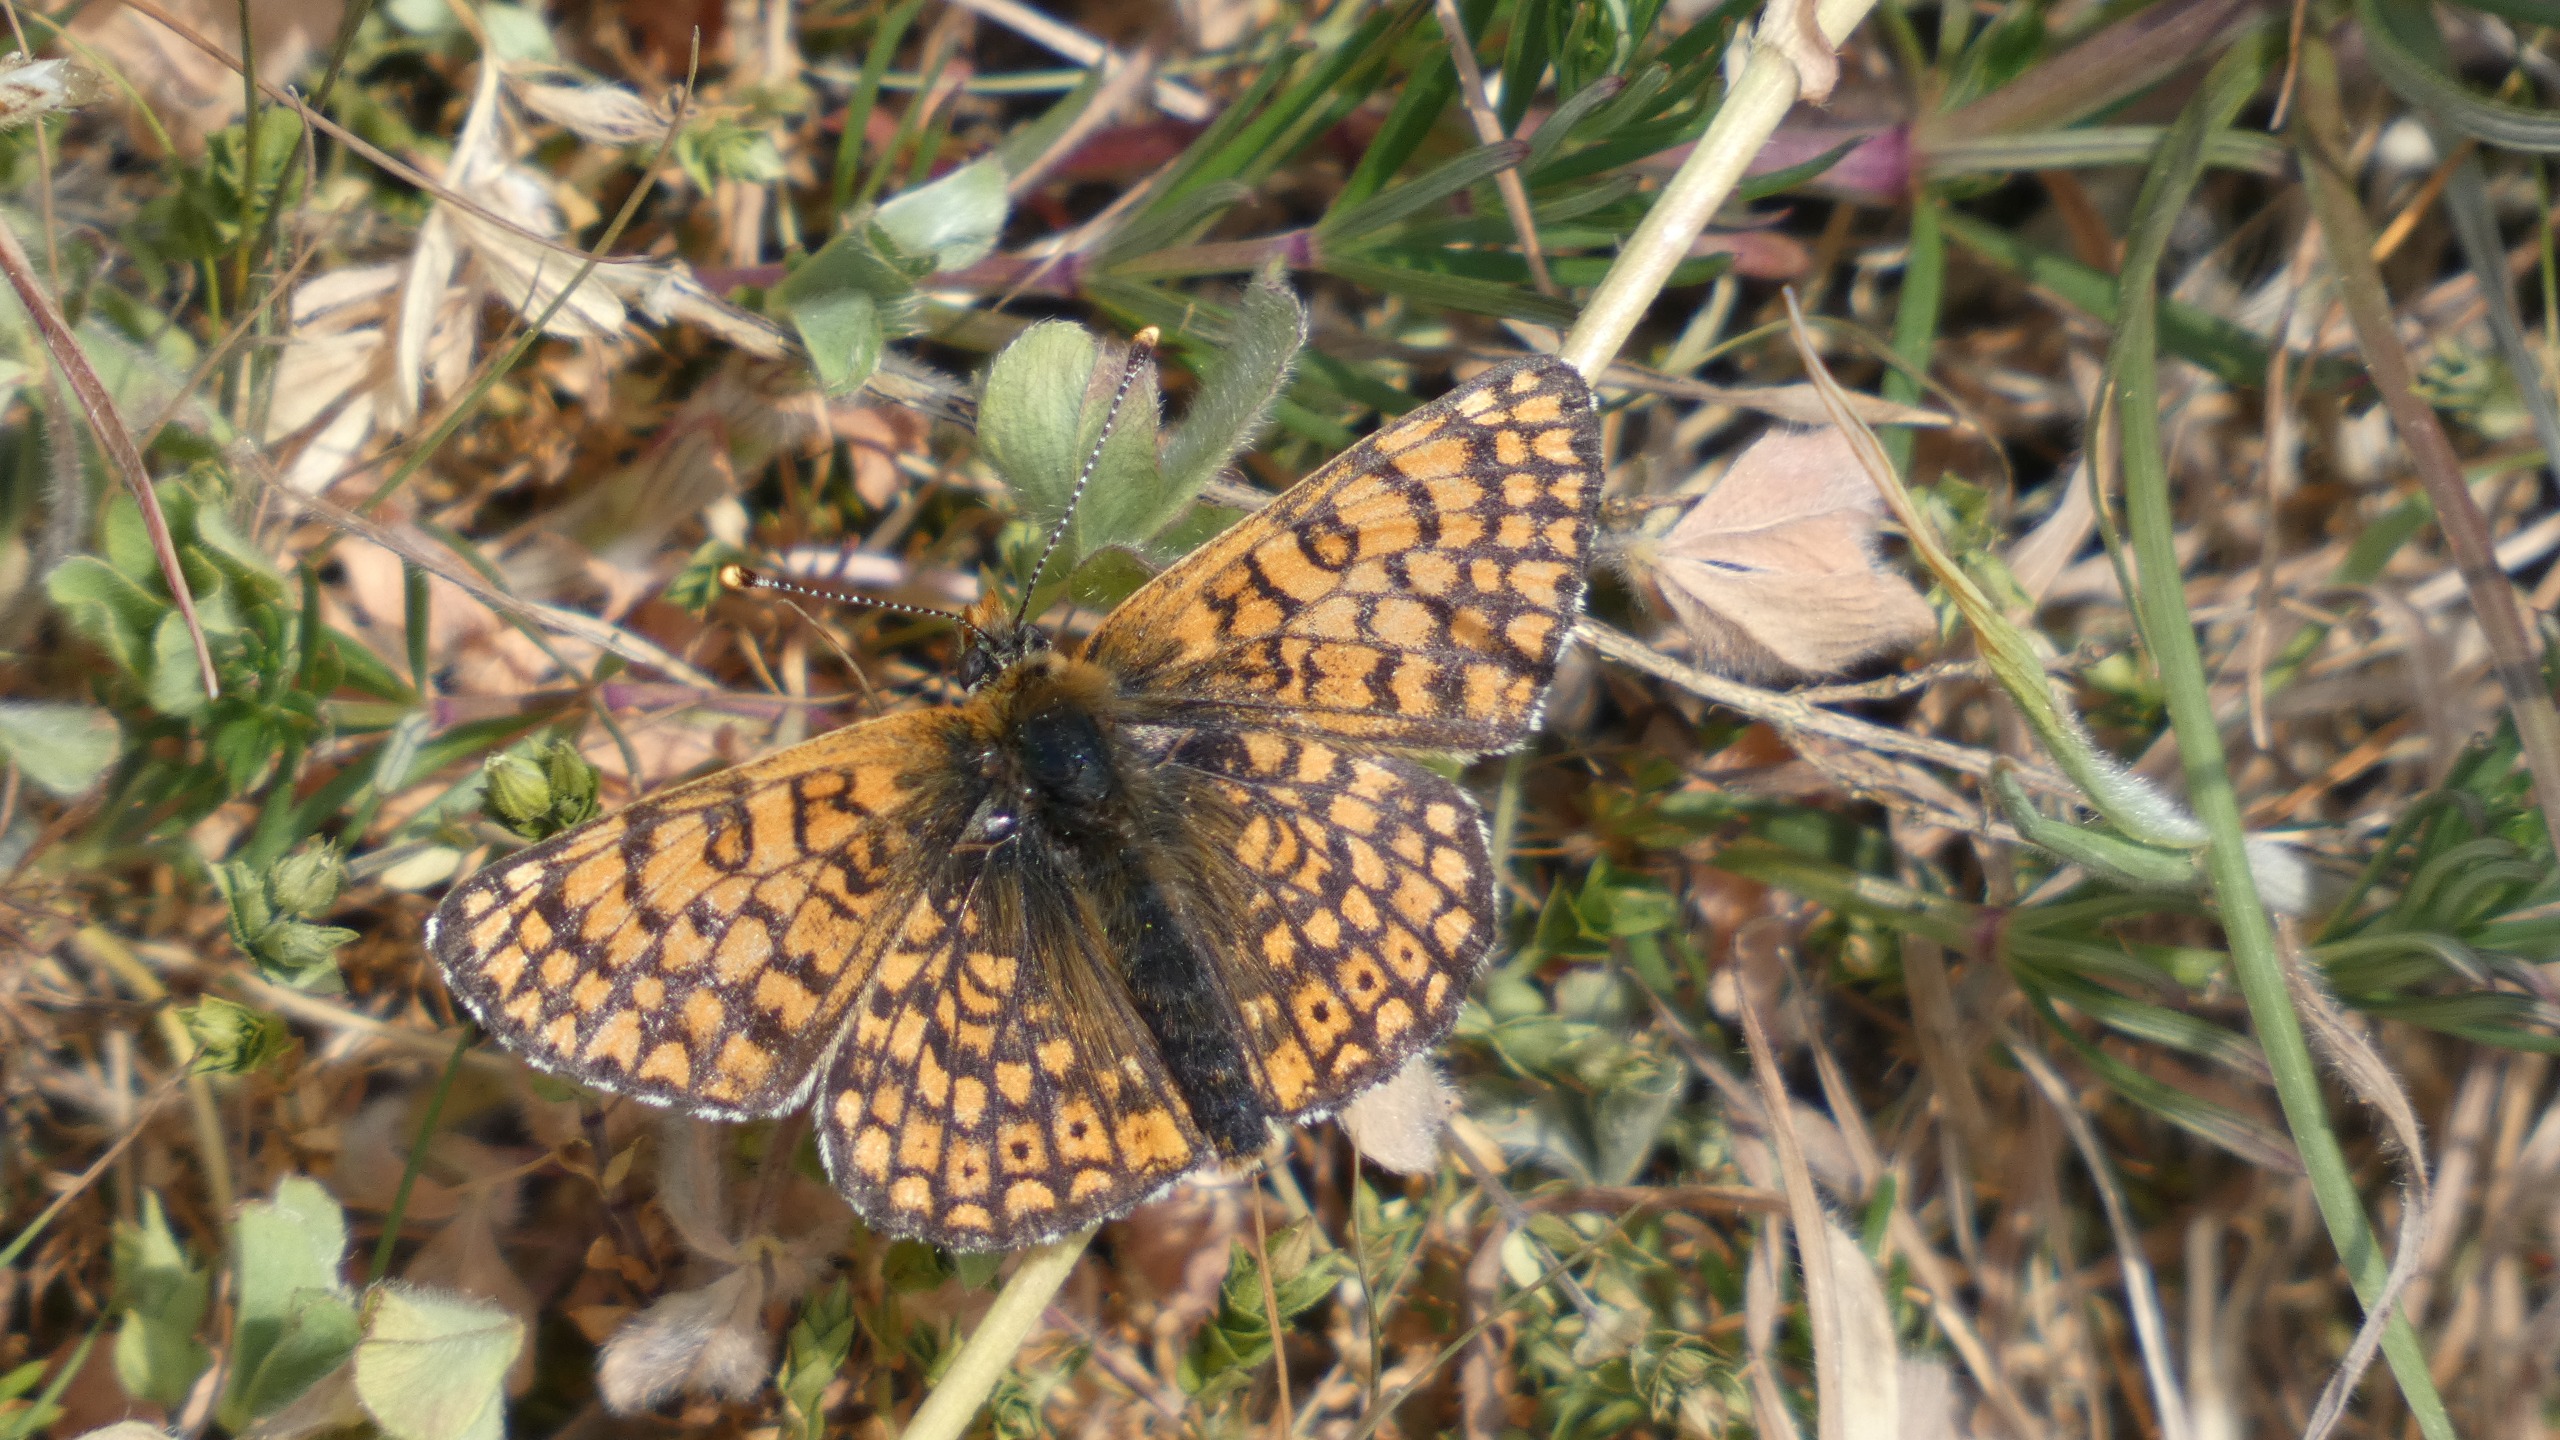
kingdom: Animalia
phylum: Arthropoda
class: Insecta
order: Lepidoptera
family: Nymphalidae
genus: Melitaea
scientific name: Melitaea cinxia
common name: Okkergul pletvinge
